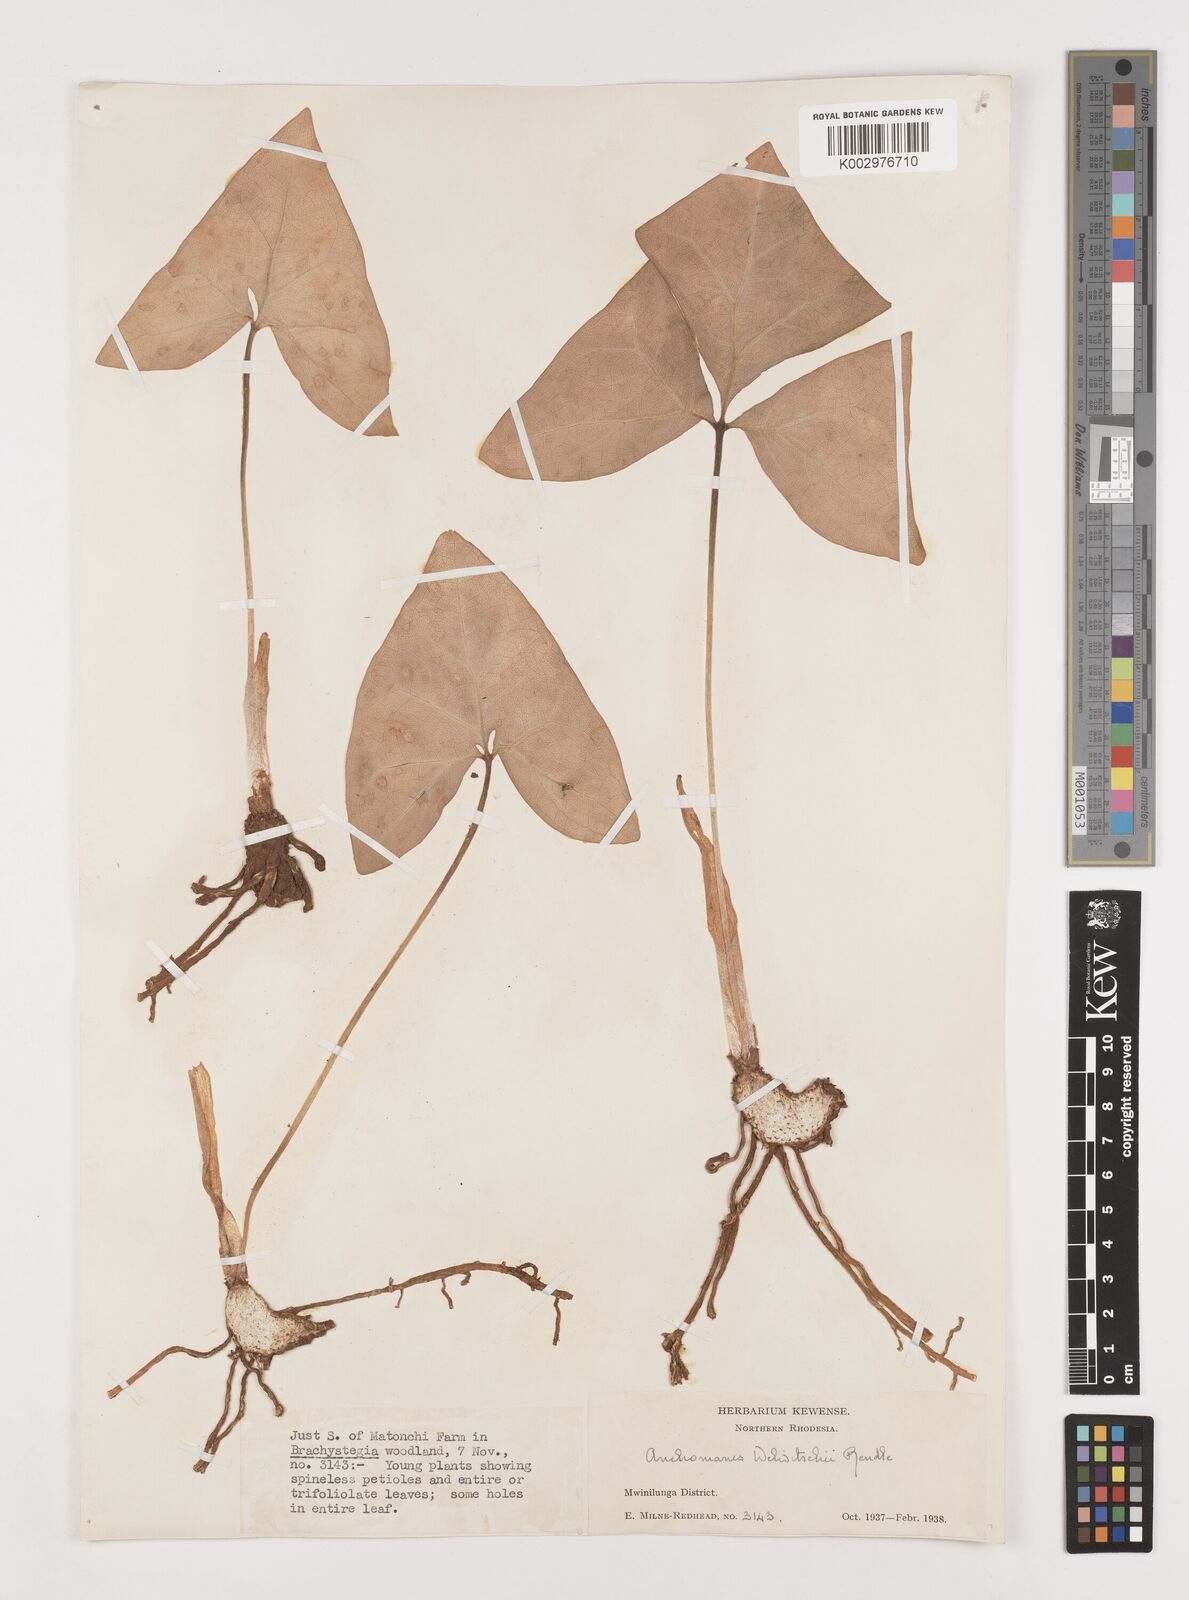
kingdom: Plantae
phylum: Tracheophyta
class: Liliopsida
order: Alismatales
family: Araceae
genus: Anchomanes
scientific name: Anchomanes difformis
